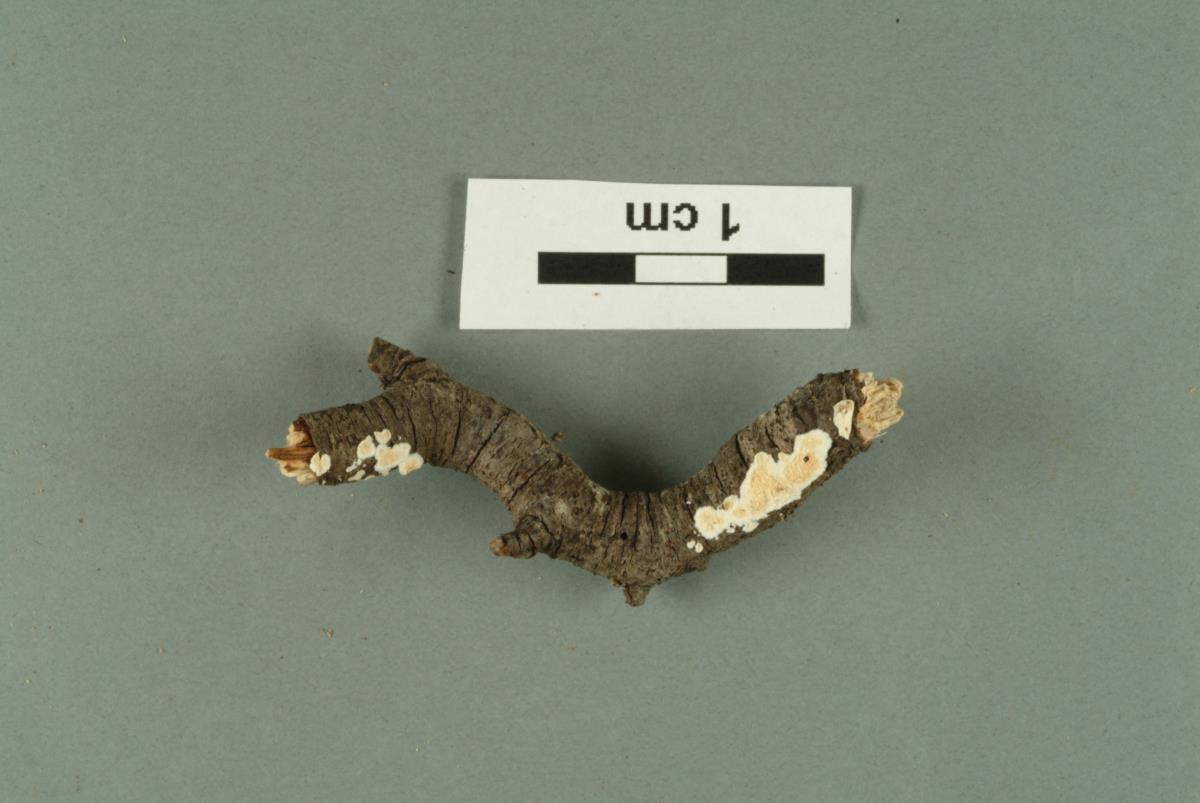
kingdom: Fungi
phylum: Basidiomycota
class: Agaricomycetes
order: Russulales
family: Stereaceae
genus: Stereum
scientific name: Stereum vellereum
